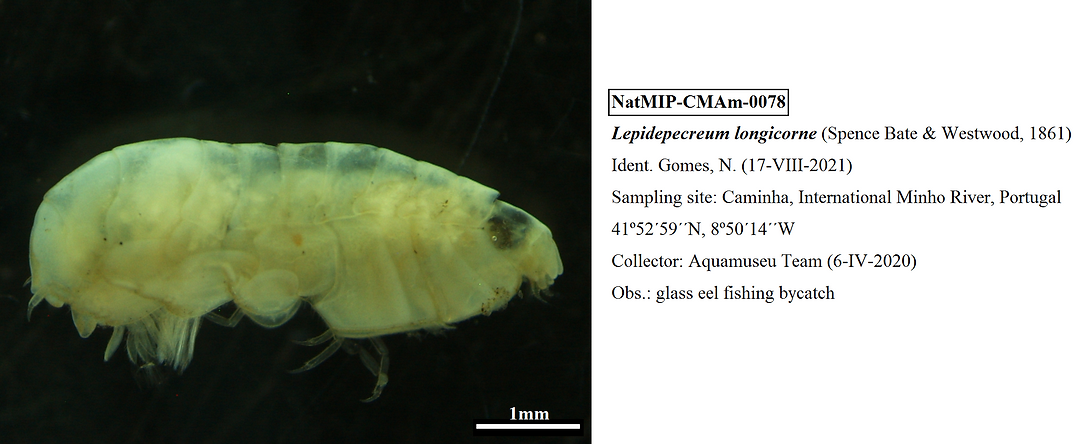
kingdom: Animalia
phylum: Arthropoda
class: Malacostraca
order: Amphipoda
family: Tryphosidae
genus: Lepidepecreum
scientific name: Lepidepecreum longicorne
